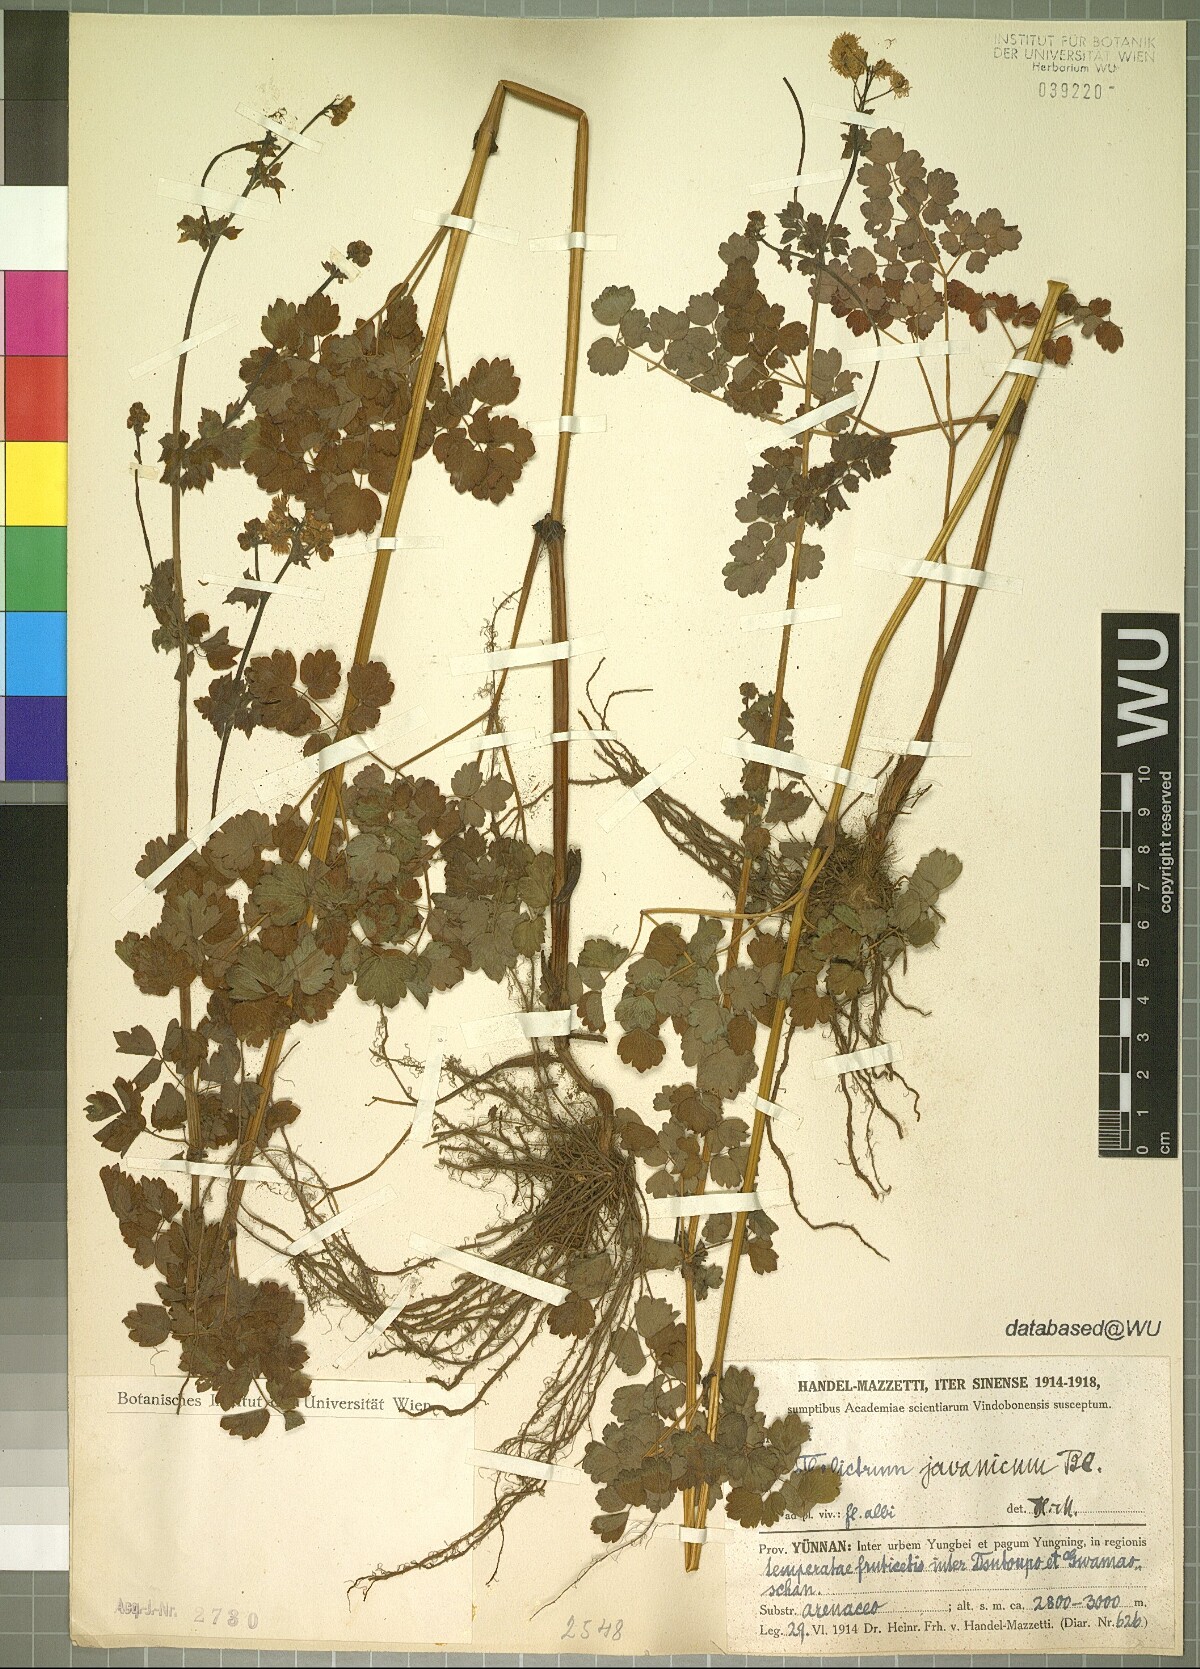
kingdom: Plantae
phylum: Tracheophyta
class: Magnoliopsida
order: Ranunculales
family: Ranunculaceae
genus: Thalictrum
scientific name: Thalictrum javanicum
